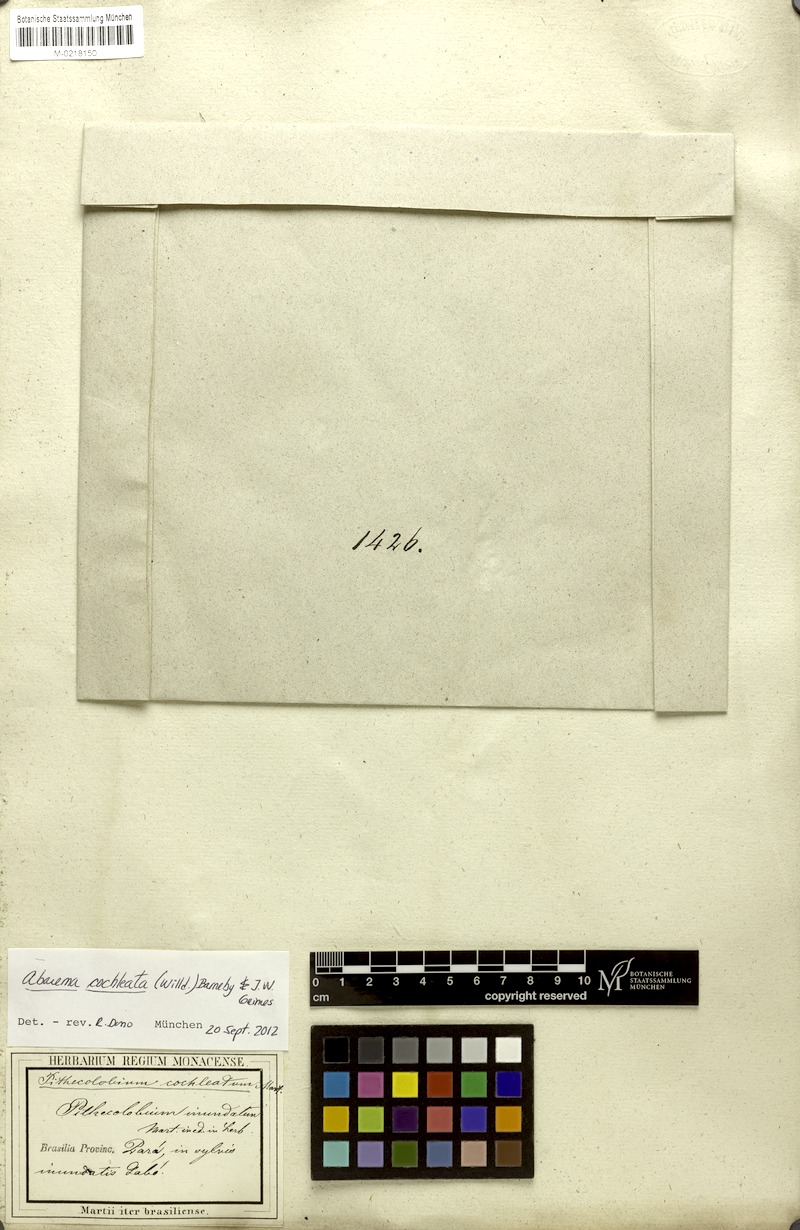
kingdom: Plantae
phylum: Tracheophyta
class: Magnoliopsida
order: Fabales
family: Fabaceae
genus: Jupunba
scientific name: Jupunba cochleata
